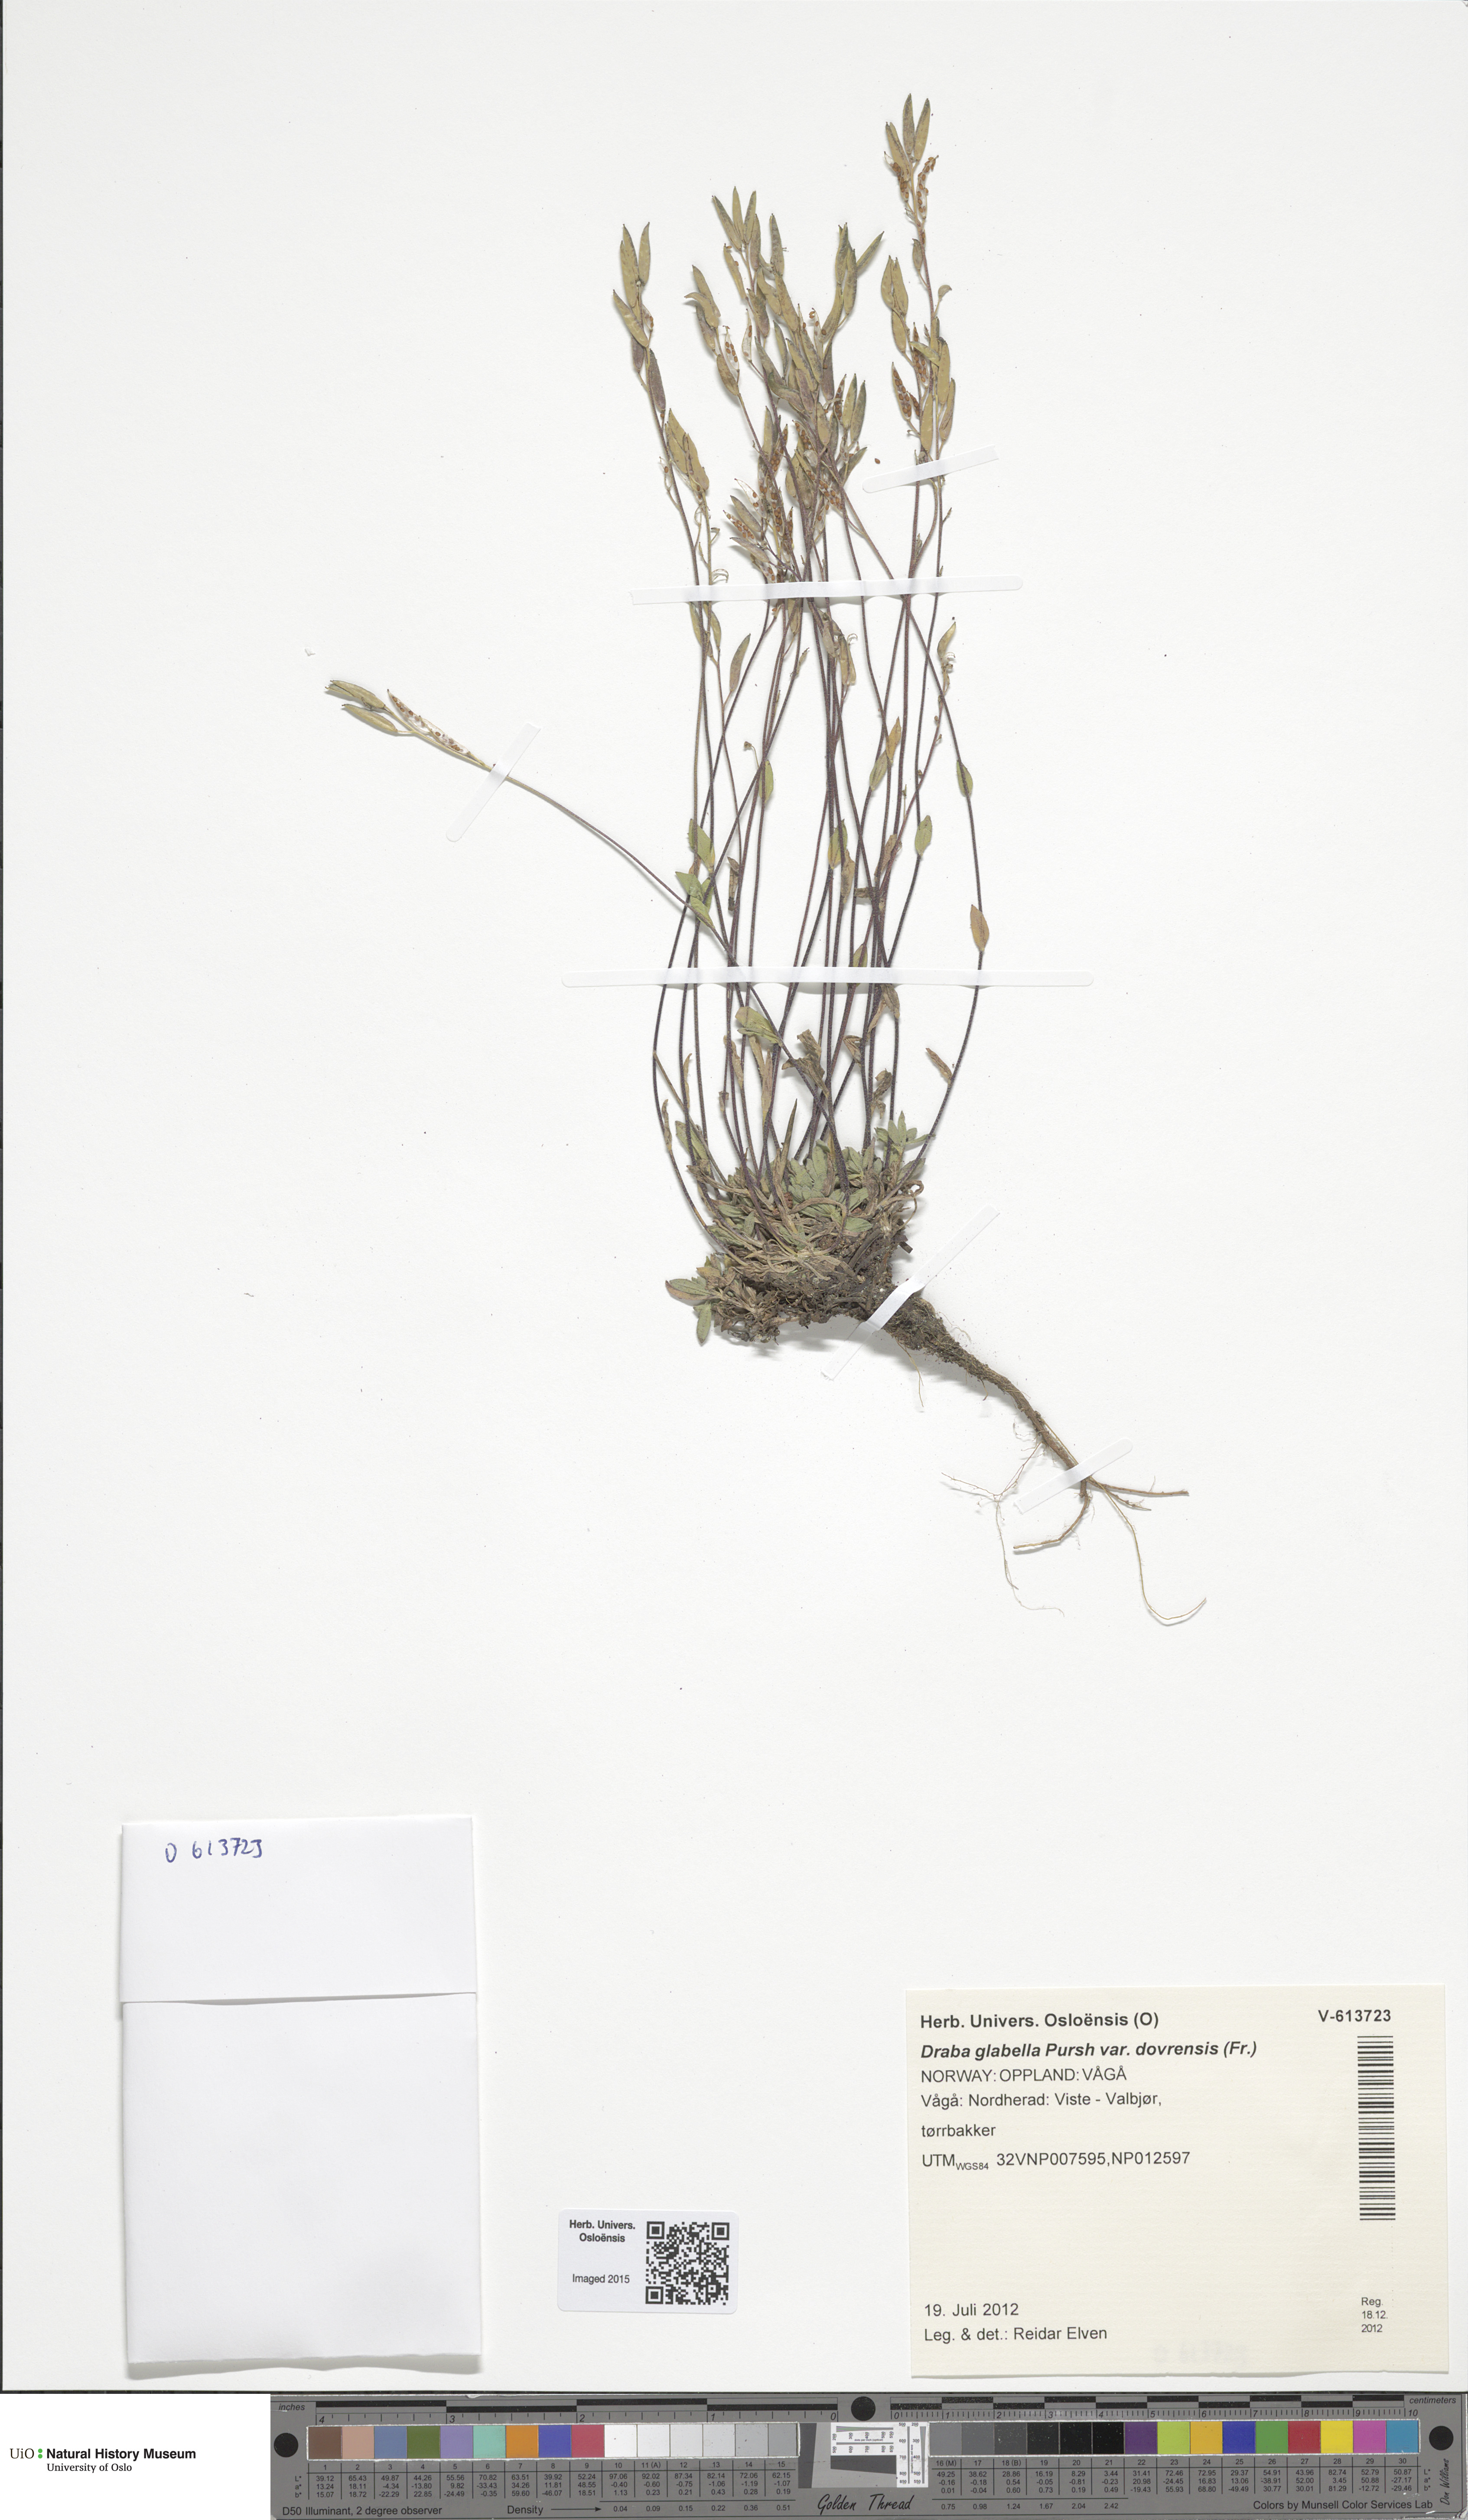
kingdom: Plantae
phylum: Tracheophyta
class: Magnoliopsida
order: Brassicales
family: Brassicaceae
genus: Draba
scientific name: Draba glabella
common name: Glaucous draba
